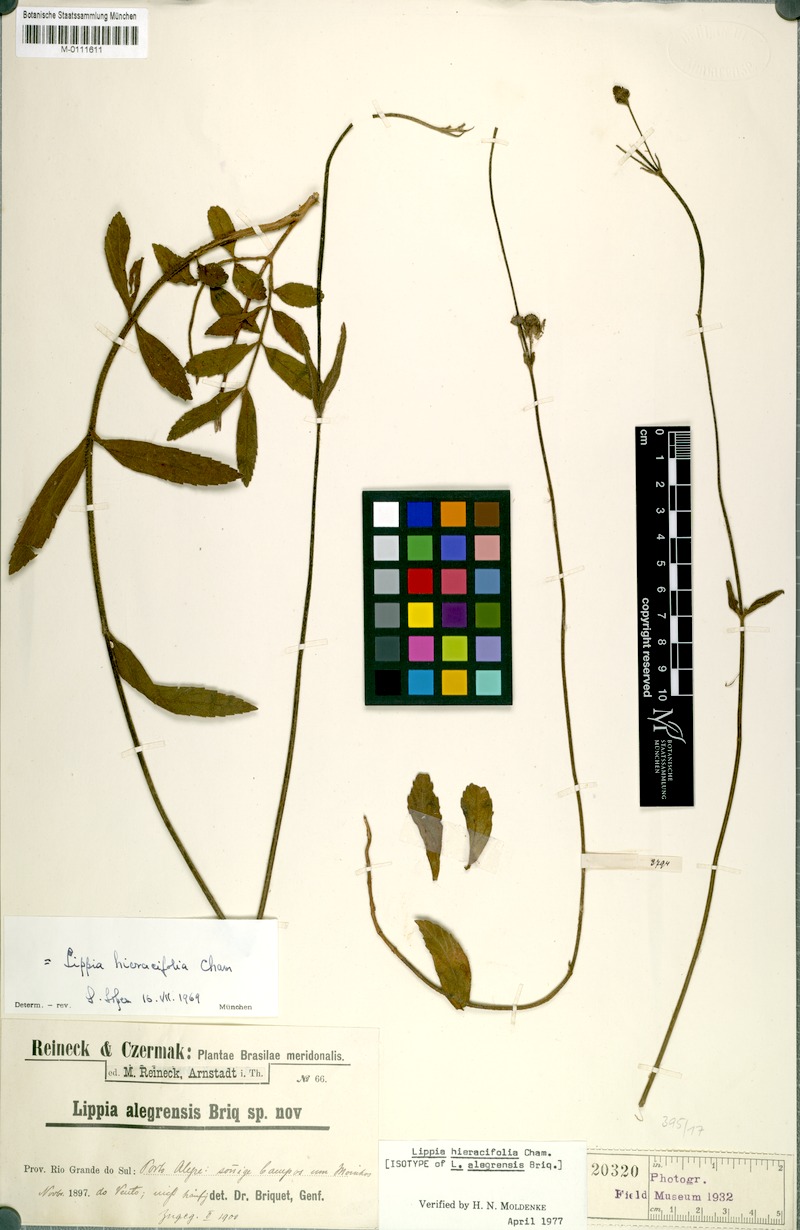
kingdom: Plantae
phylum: Tracheophyta
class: Magnoliopsida
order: Lamiales
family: Verbenaceae
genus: Lippia
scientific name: Lippia hieraciifolia
